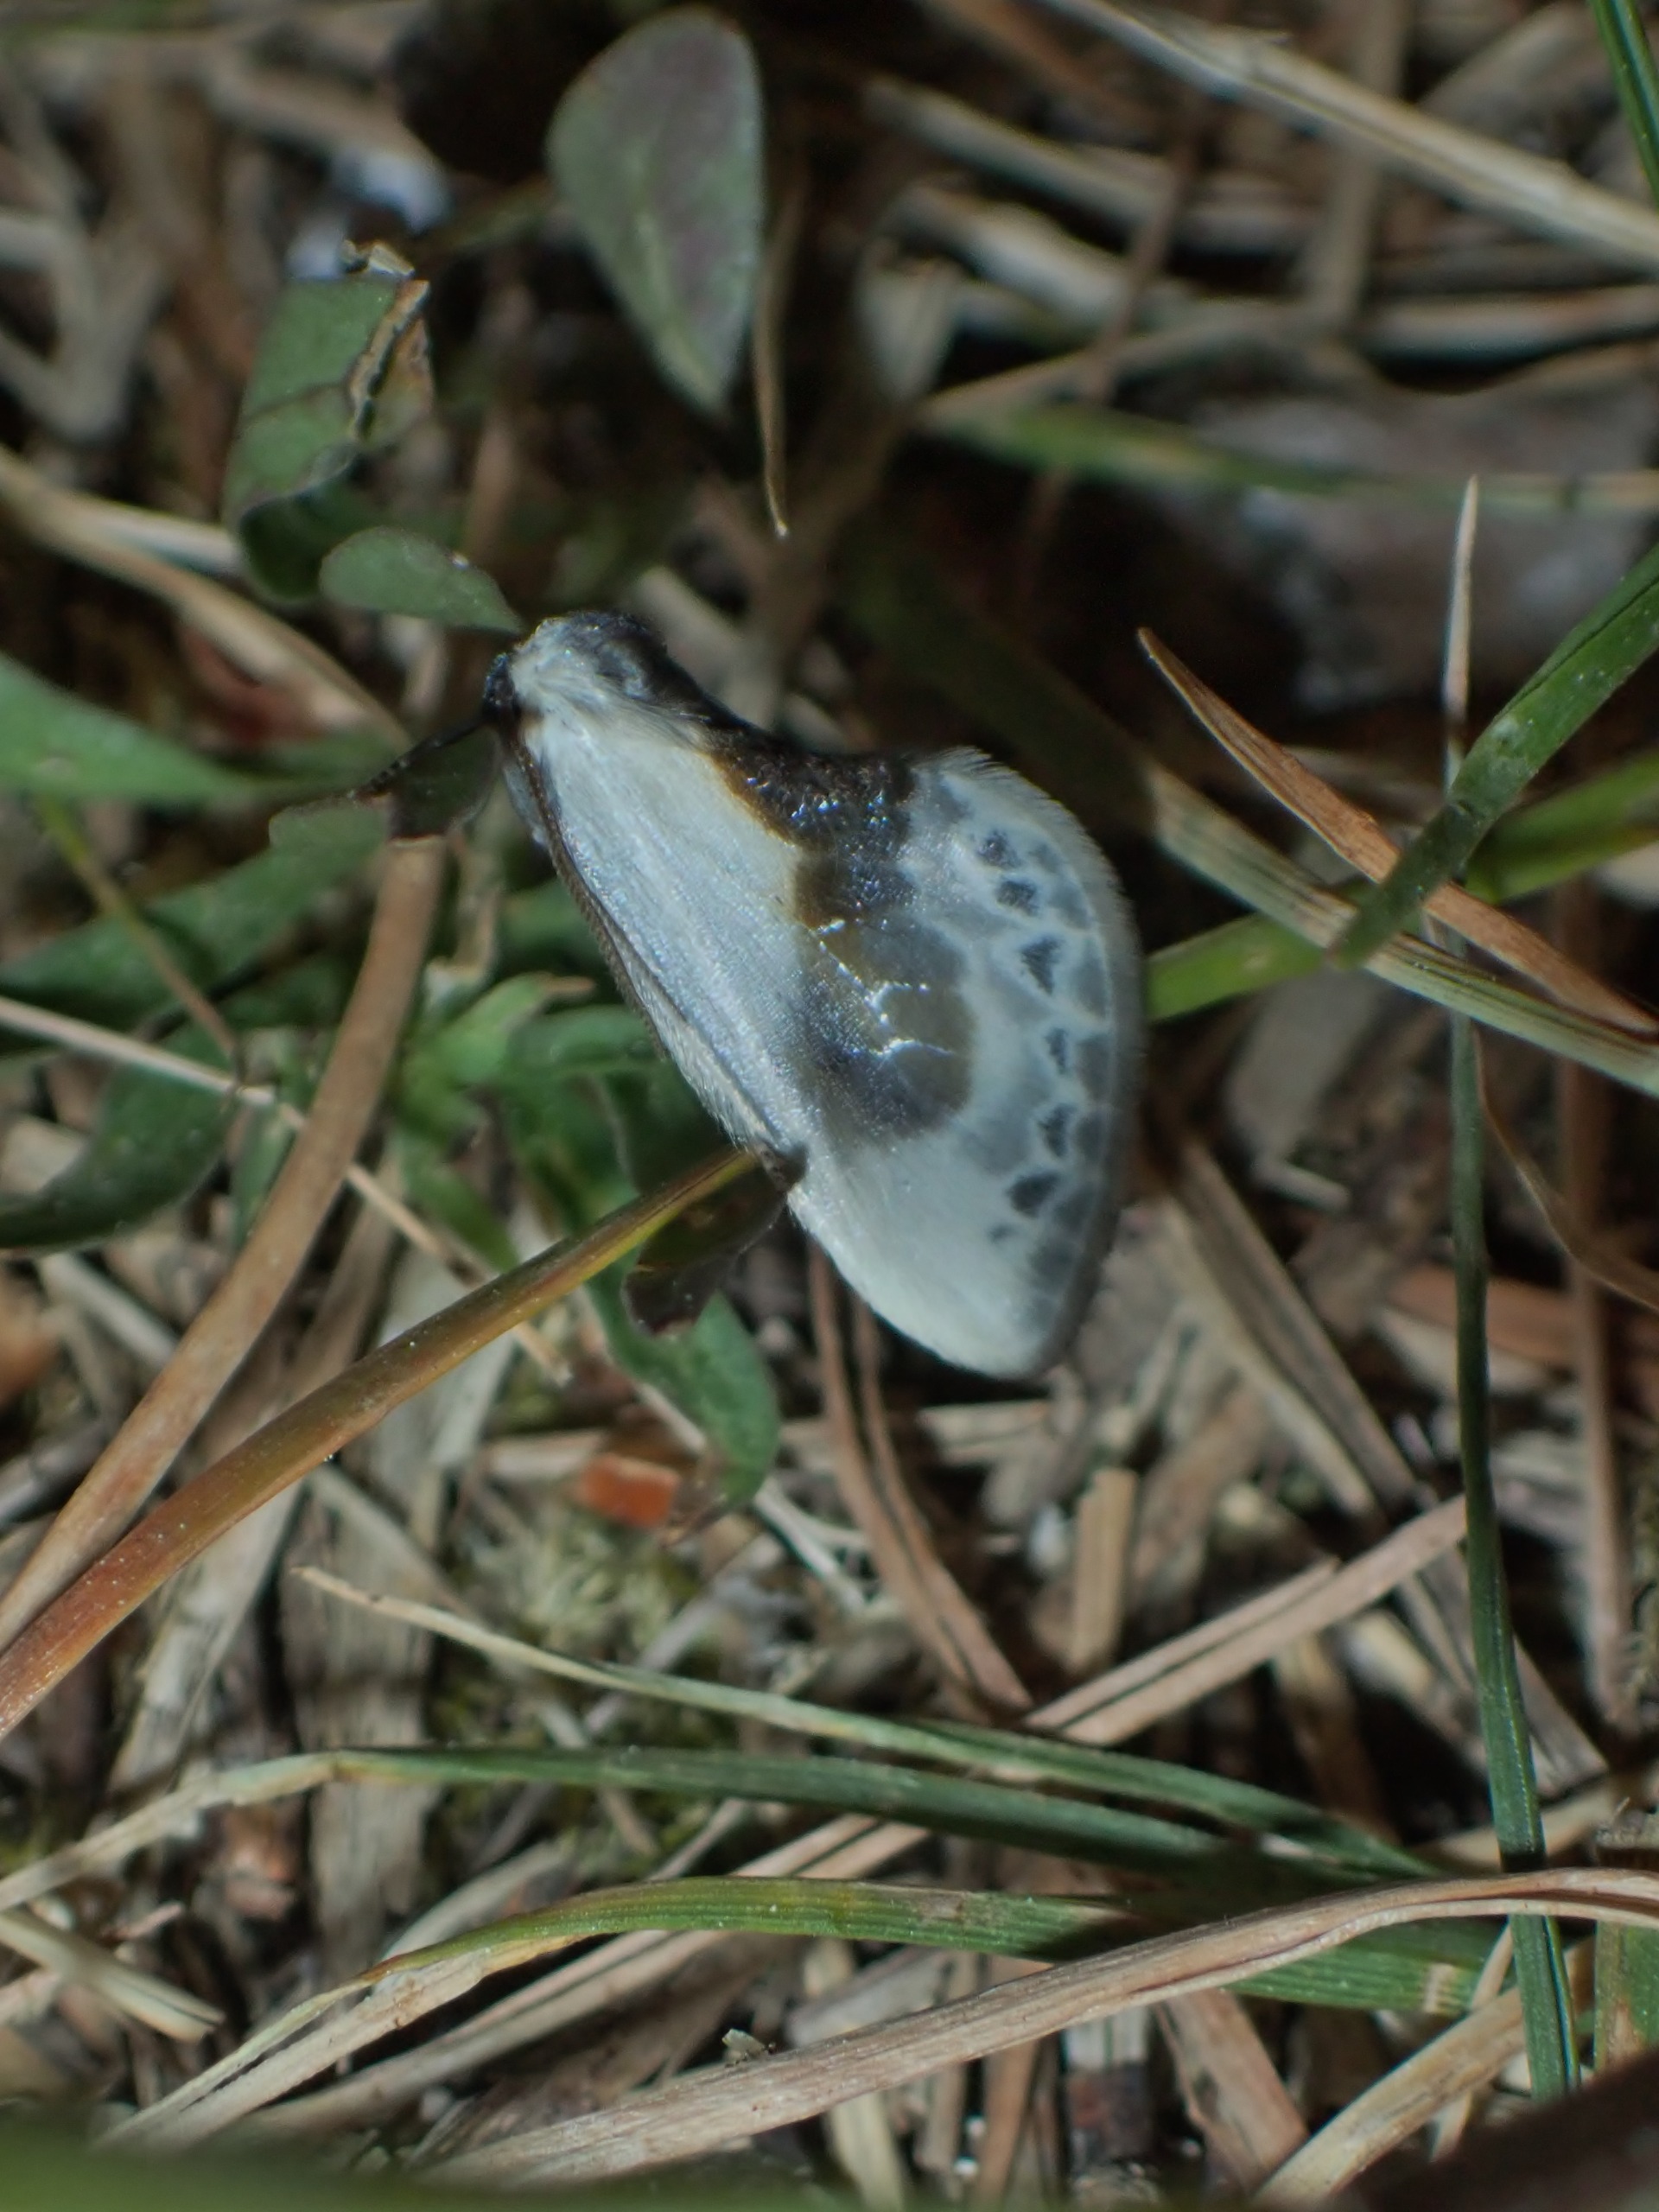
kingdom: Animalia
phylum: Arthropoda
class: Insecta
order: Lepidoptera
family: Drepanidae
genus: Cilix
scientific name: Cilix glaucata
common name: Silkevinge
